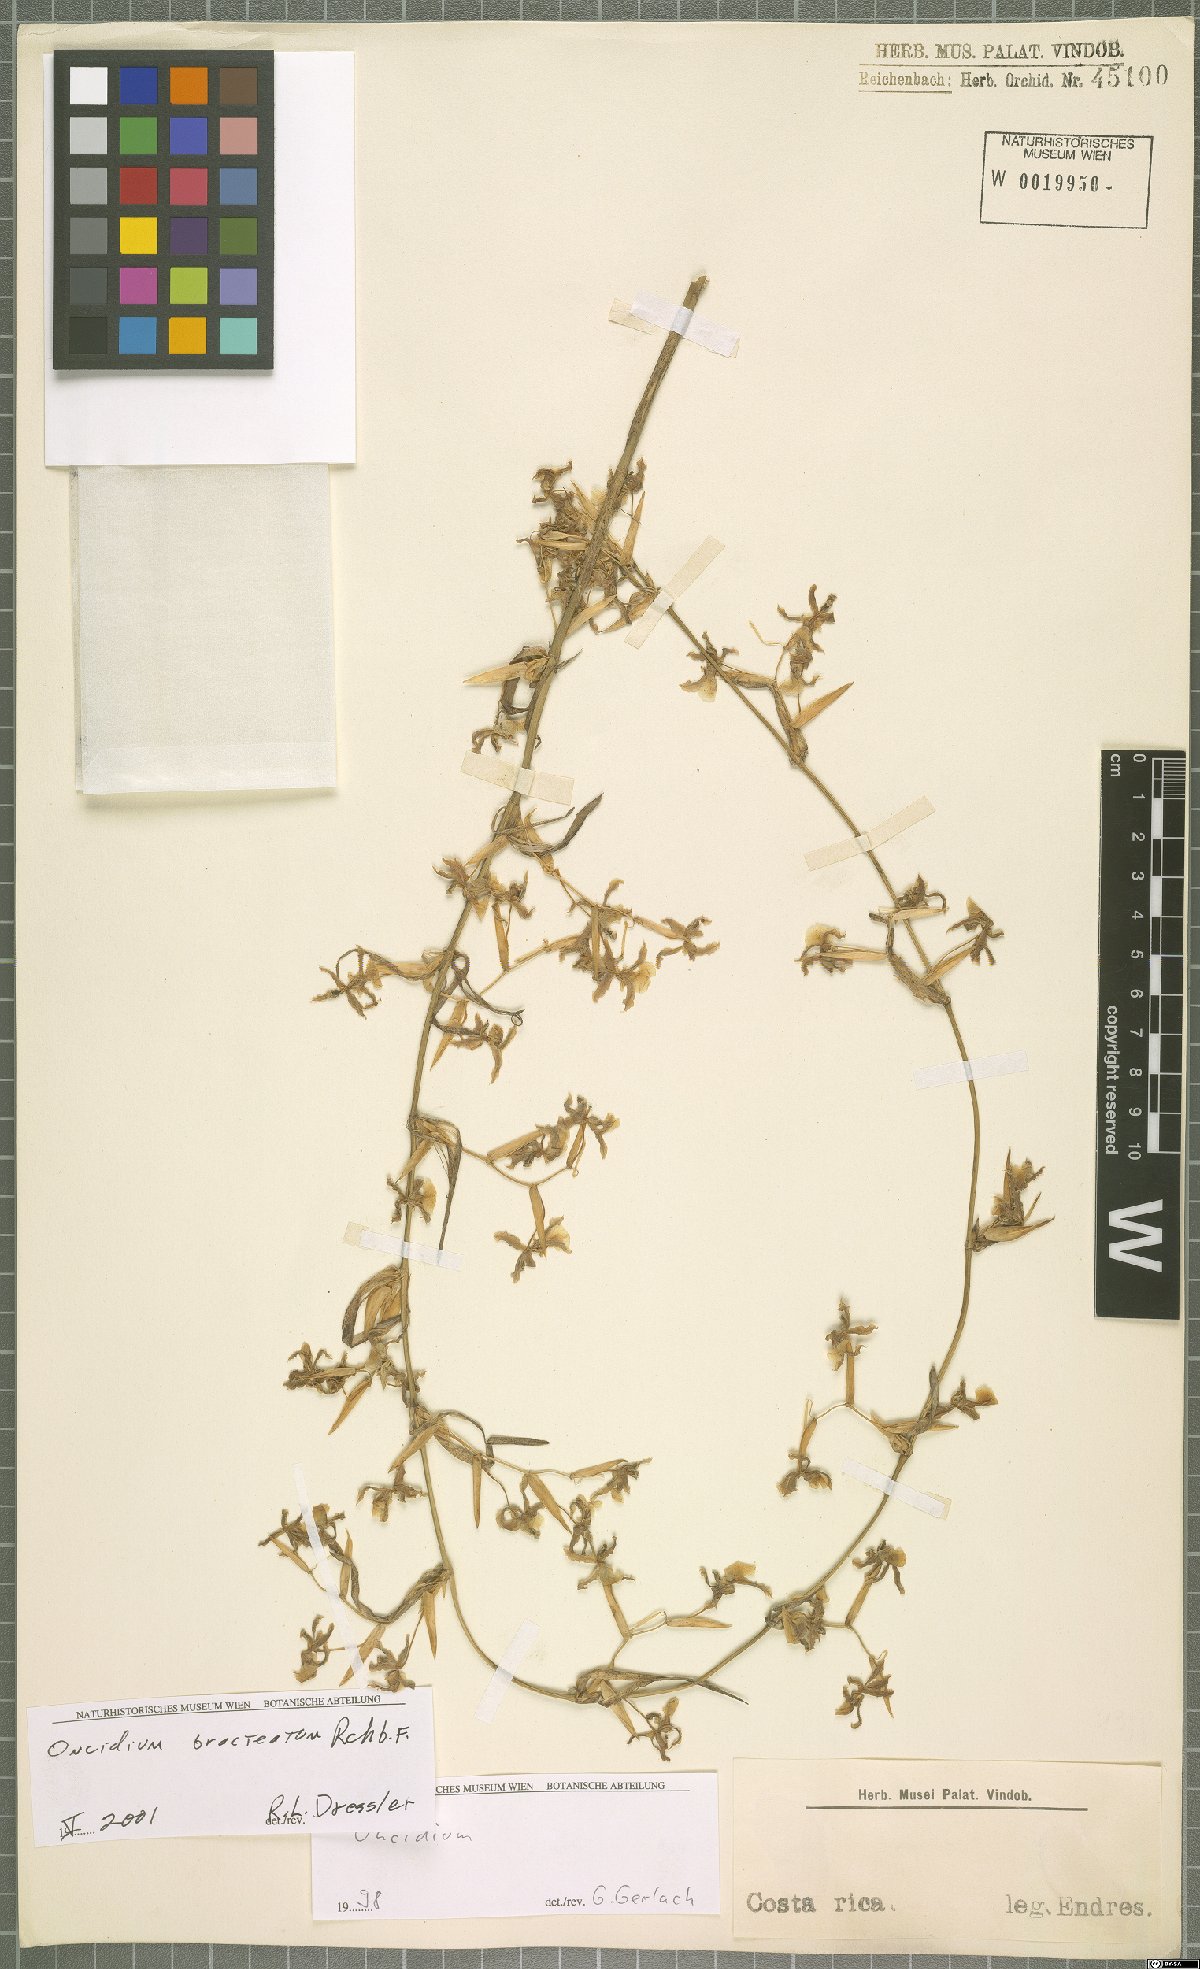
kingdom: Plantae
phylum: Tracheophyta
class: Liliopsida
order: Asparagales
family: Orchidaceae
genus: Oncidium
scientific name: Oncidium bracteatum
